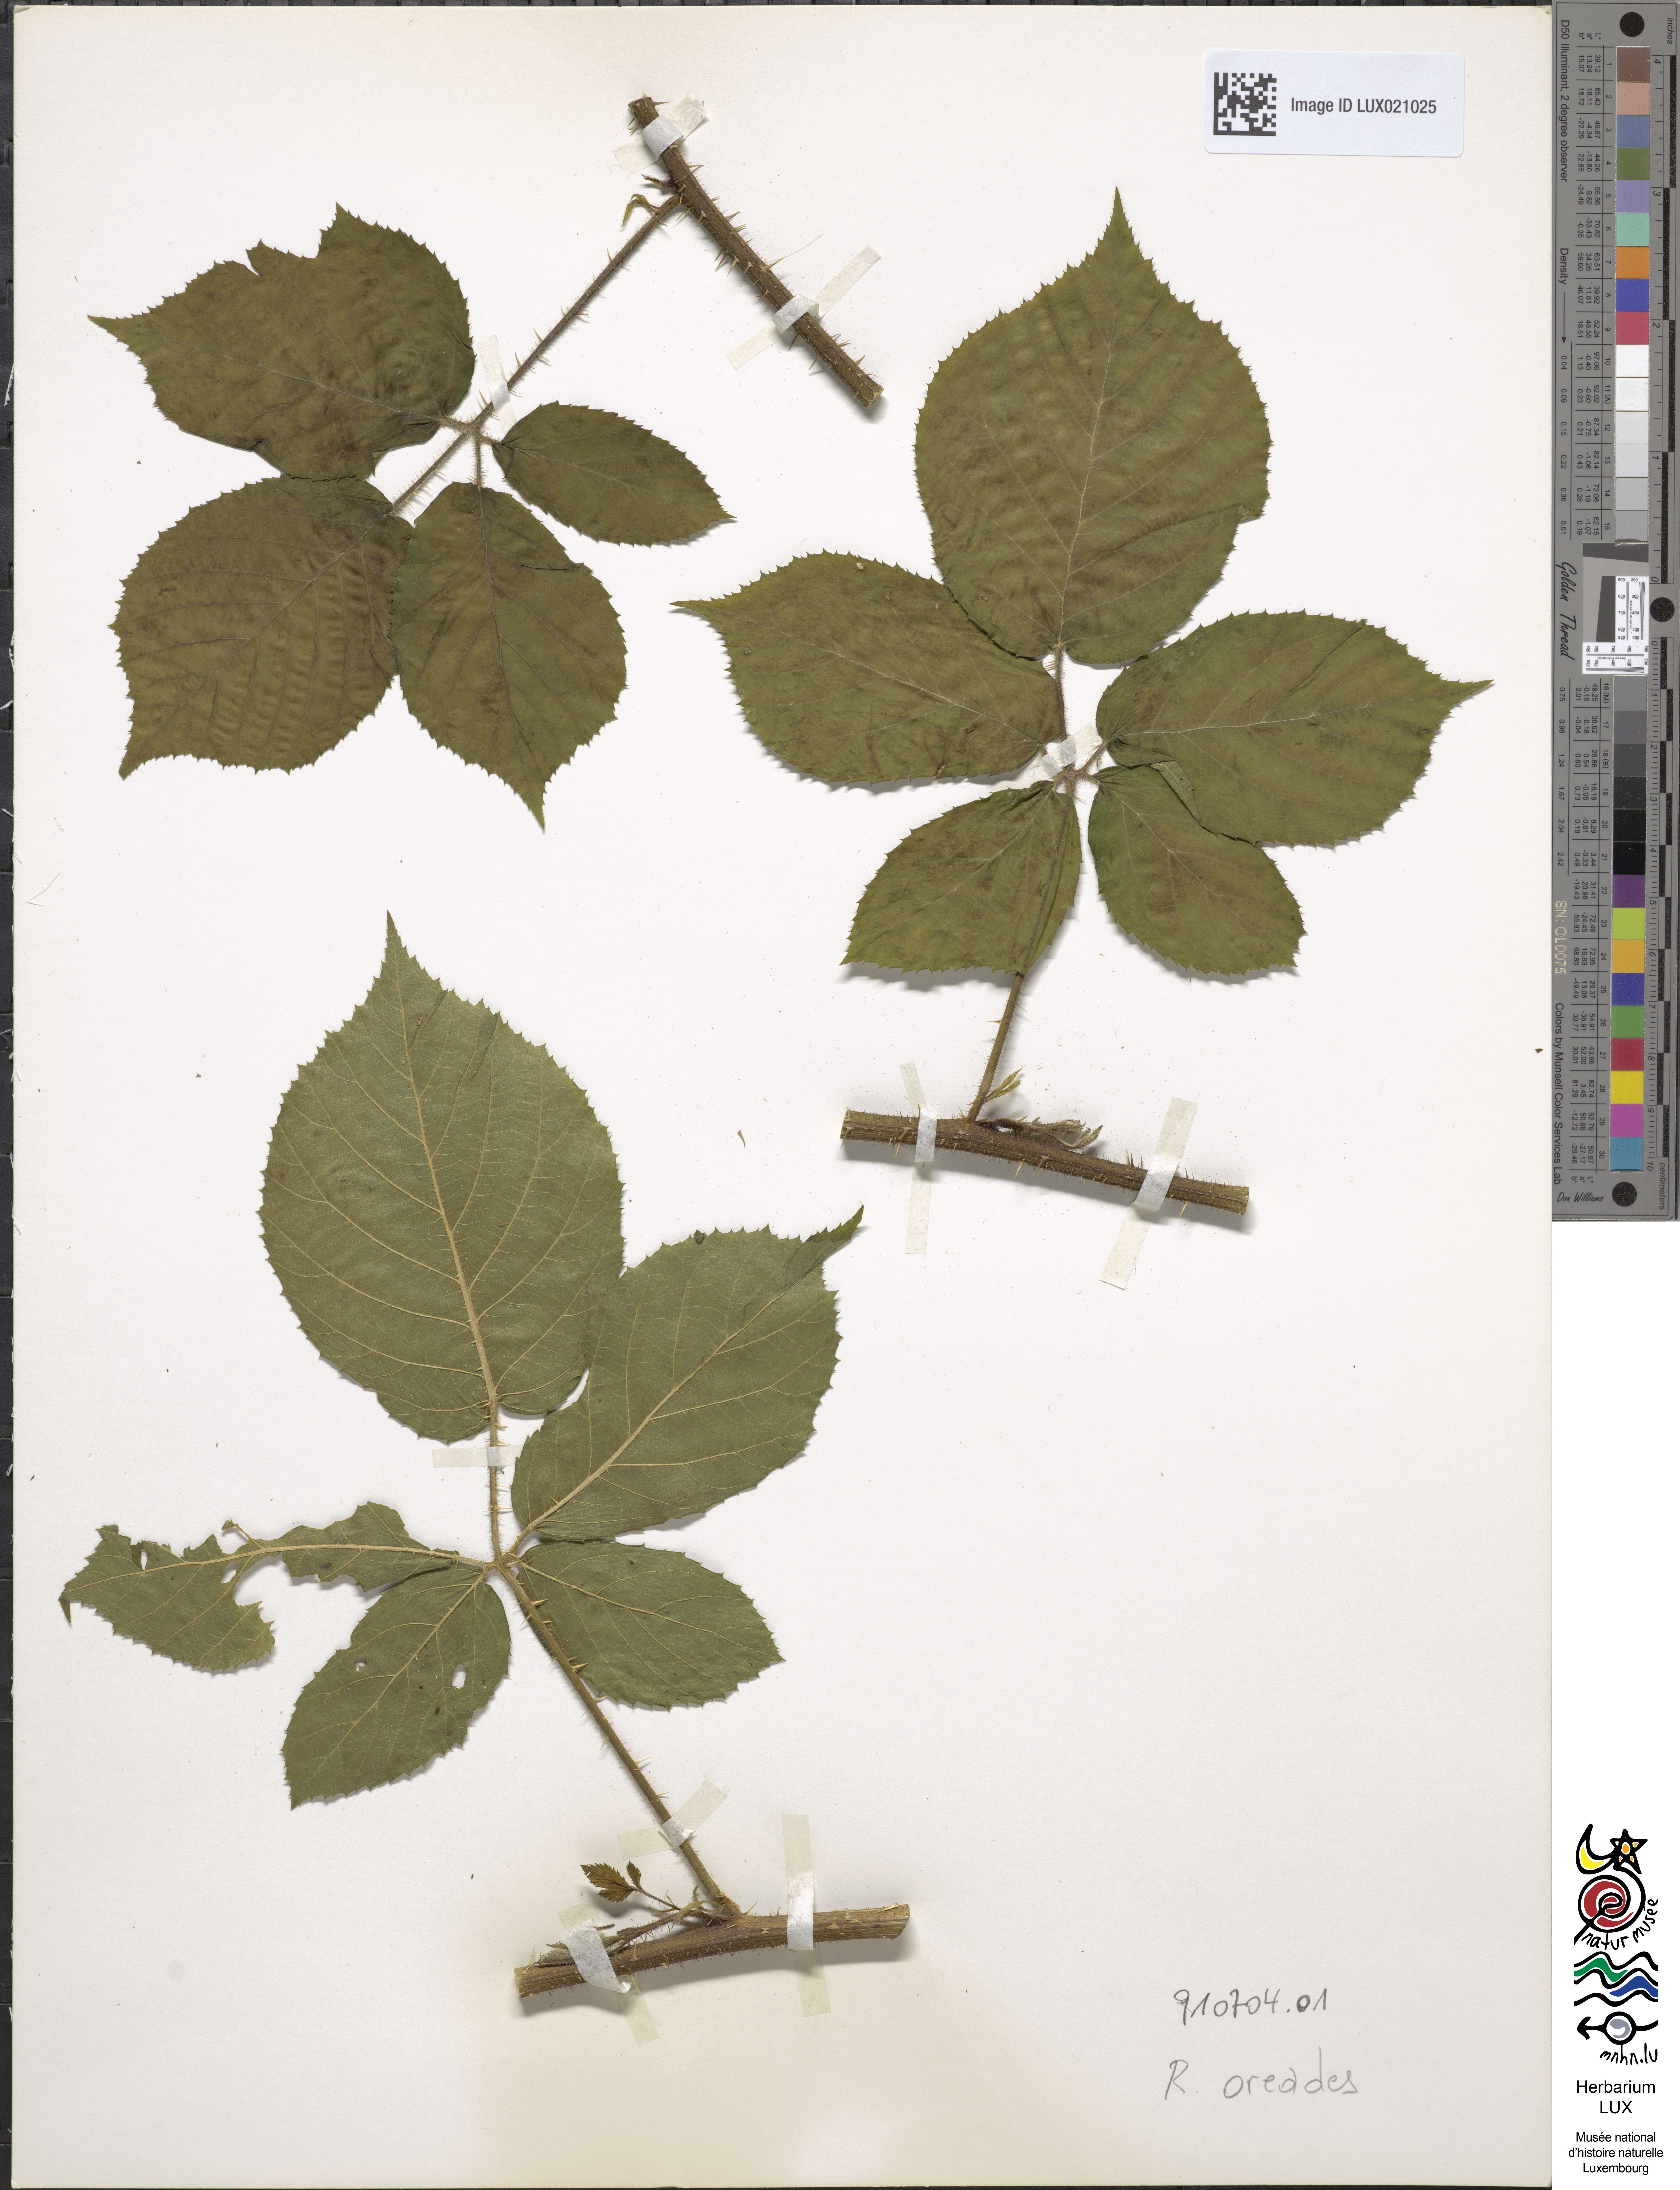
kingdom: Plantae
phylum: Tracheophyta
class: Magnoliopsida
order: Rosales
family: Rosaceae
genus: Rubus
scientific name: Rubus oreades
